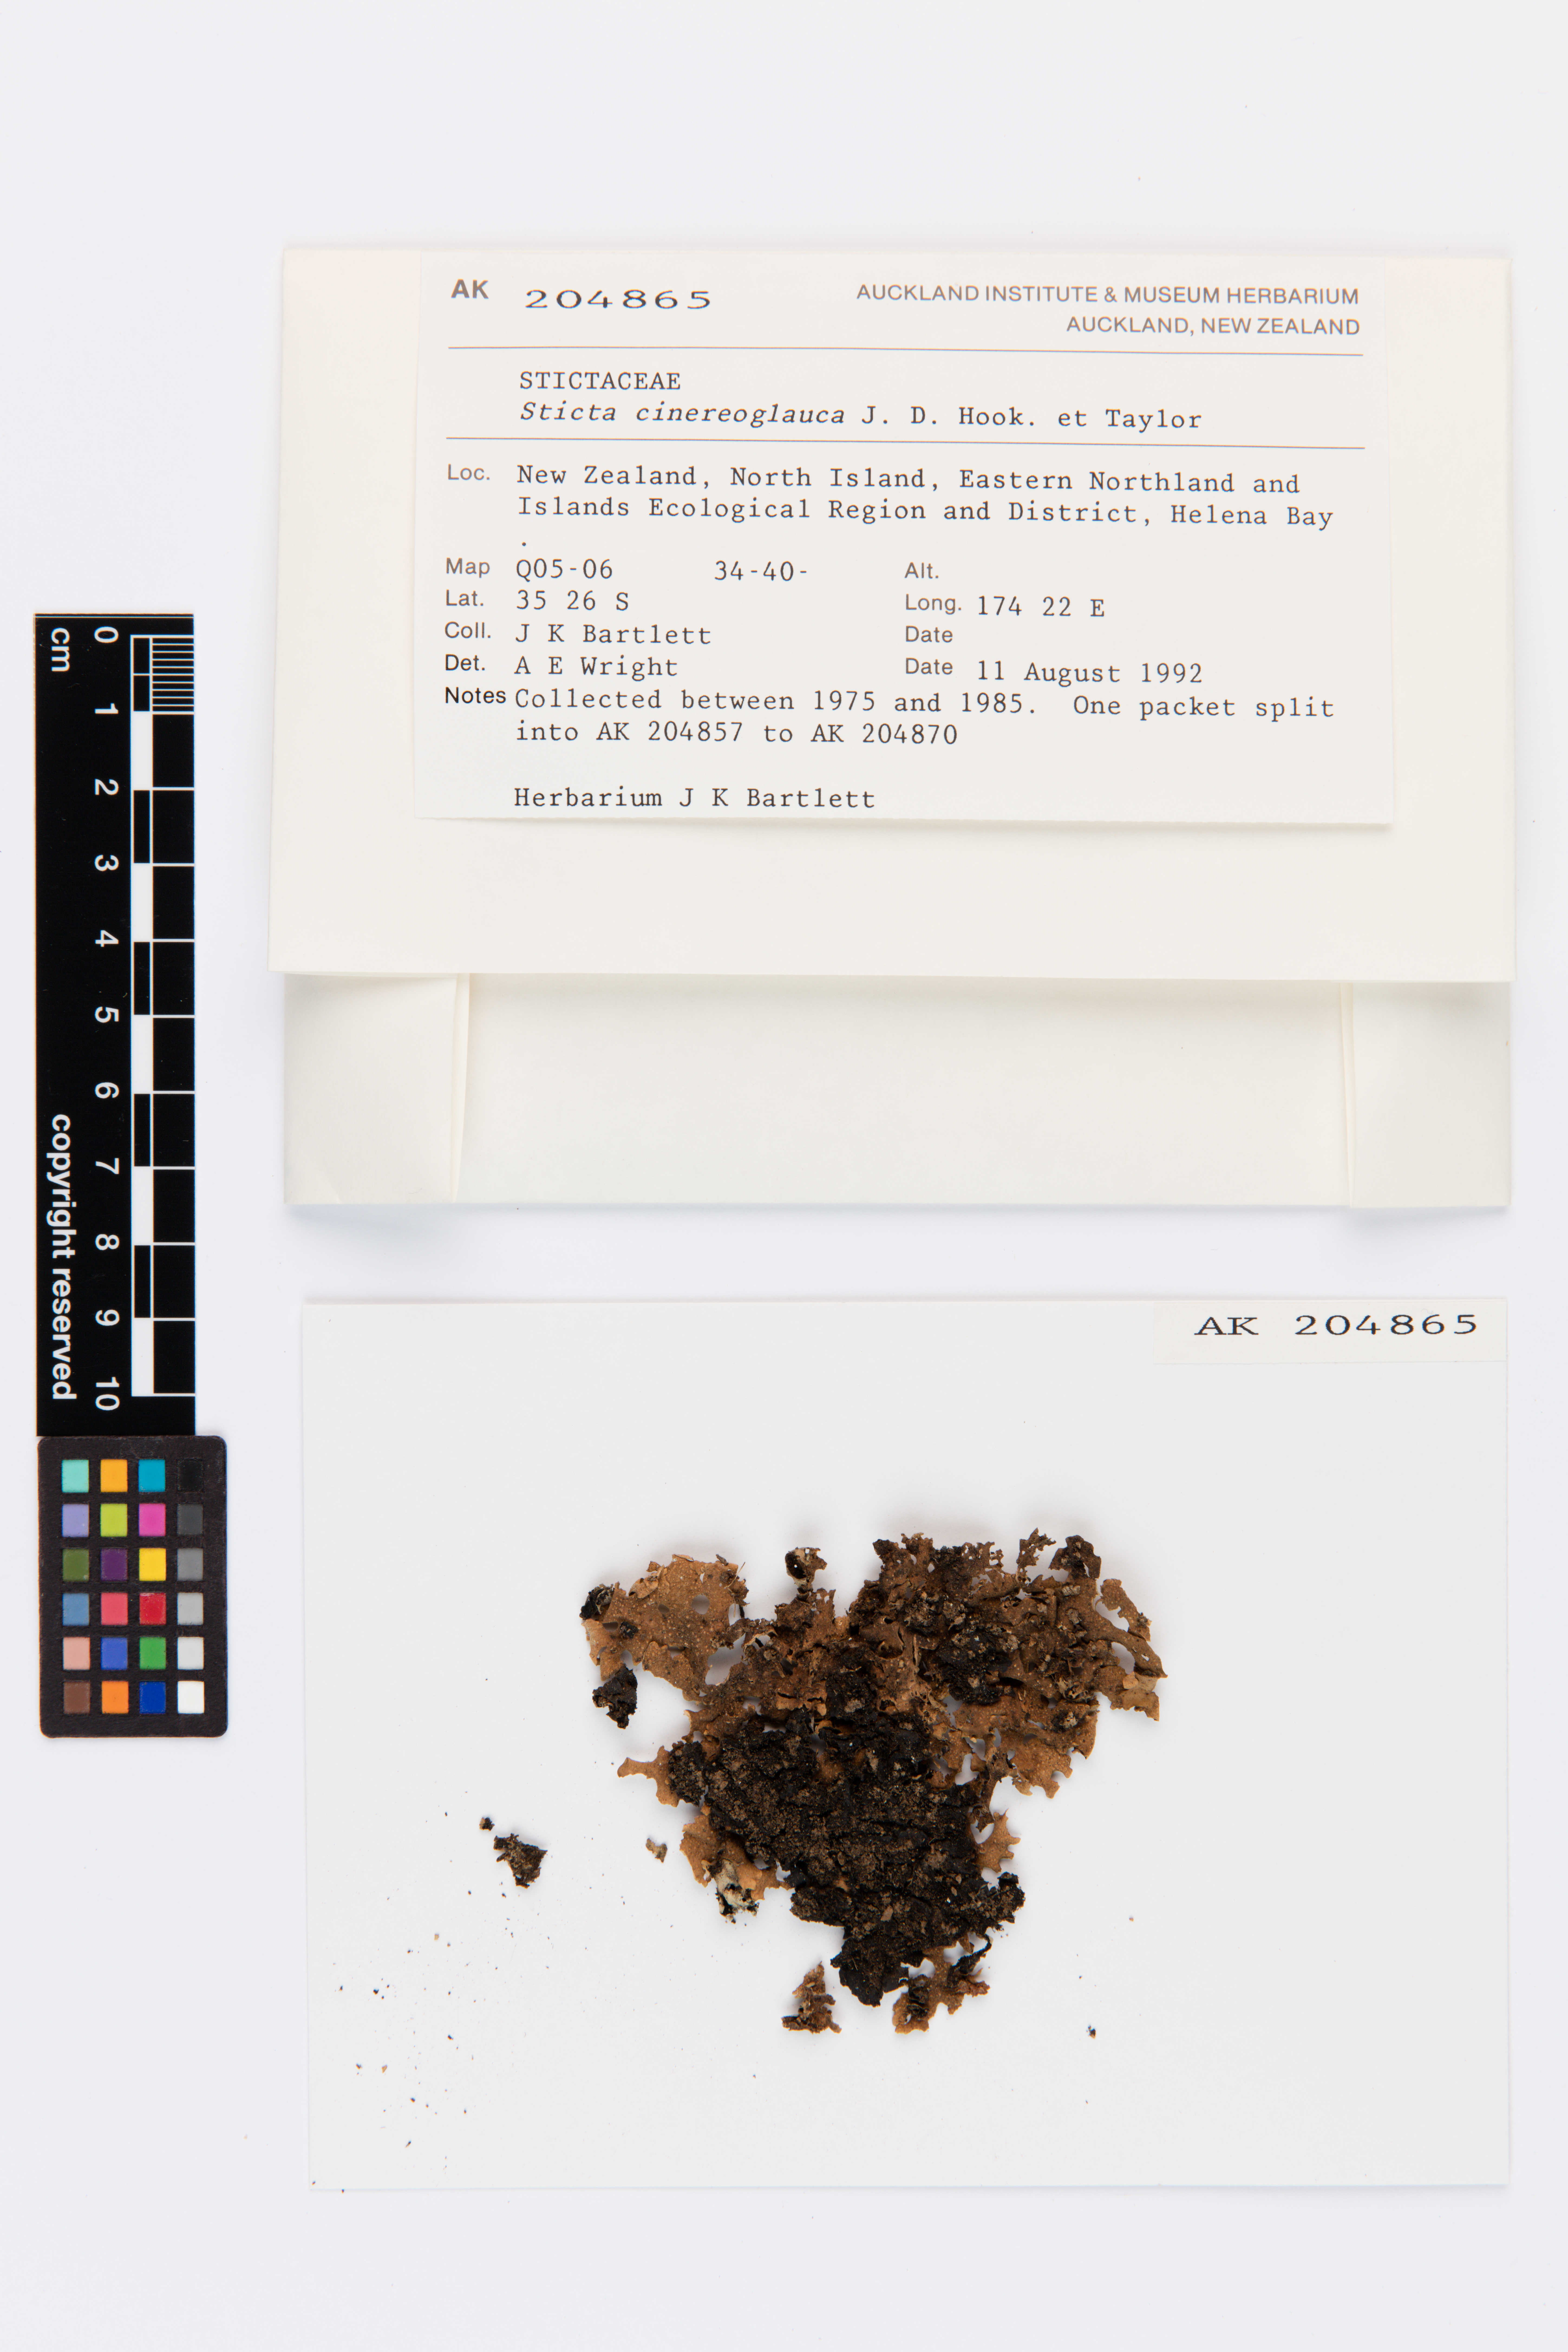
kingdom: Fungi
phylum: Ascomycota
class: Lecanoromycetes
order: Peltigerales
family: Lobariaceae
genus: Sticta
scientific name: Sticta cinereoglauca
